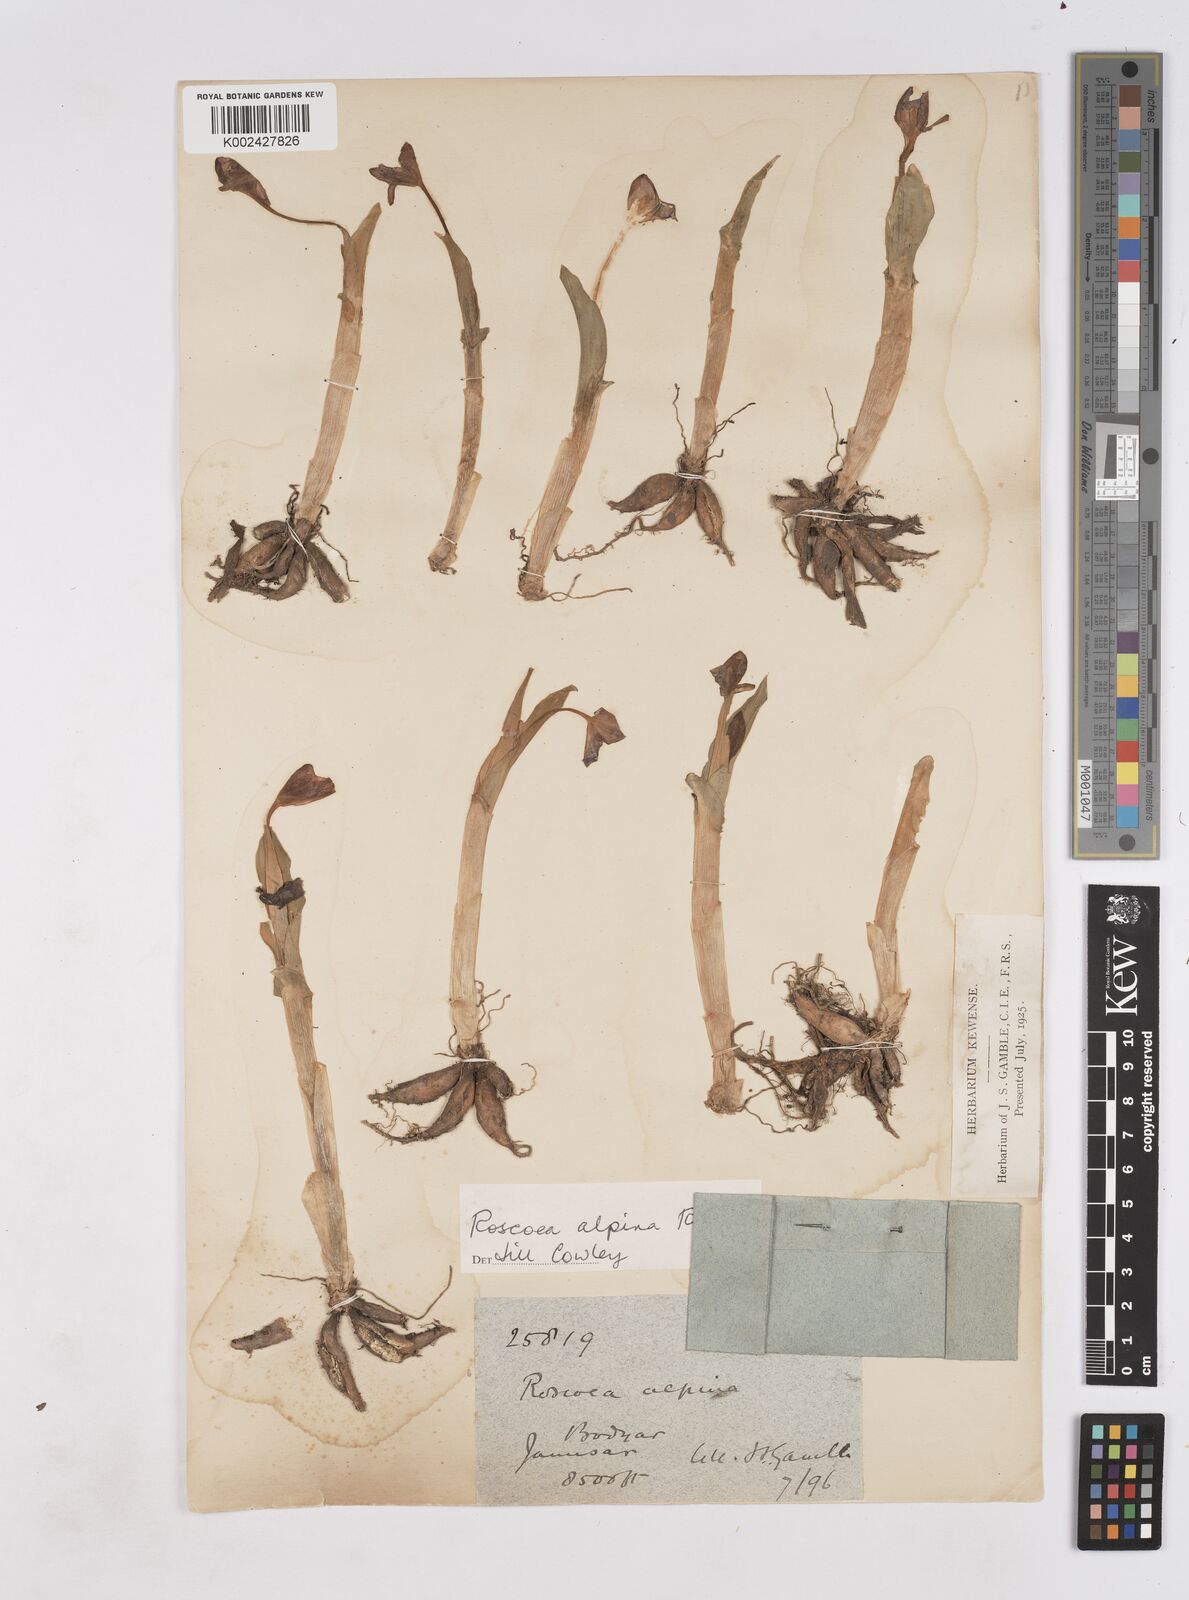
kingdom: Plantae
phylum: Tracheophyta
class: Liliopsida
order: Zingiberales
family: Zingiberaceae
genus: Roscoea
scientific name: Roscoea alpina
